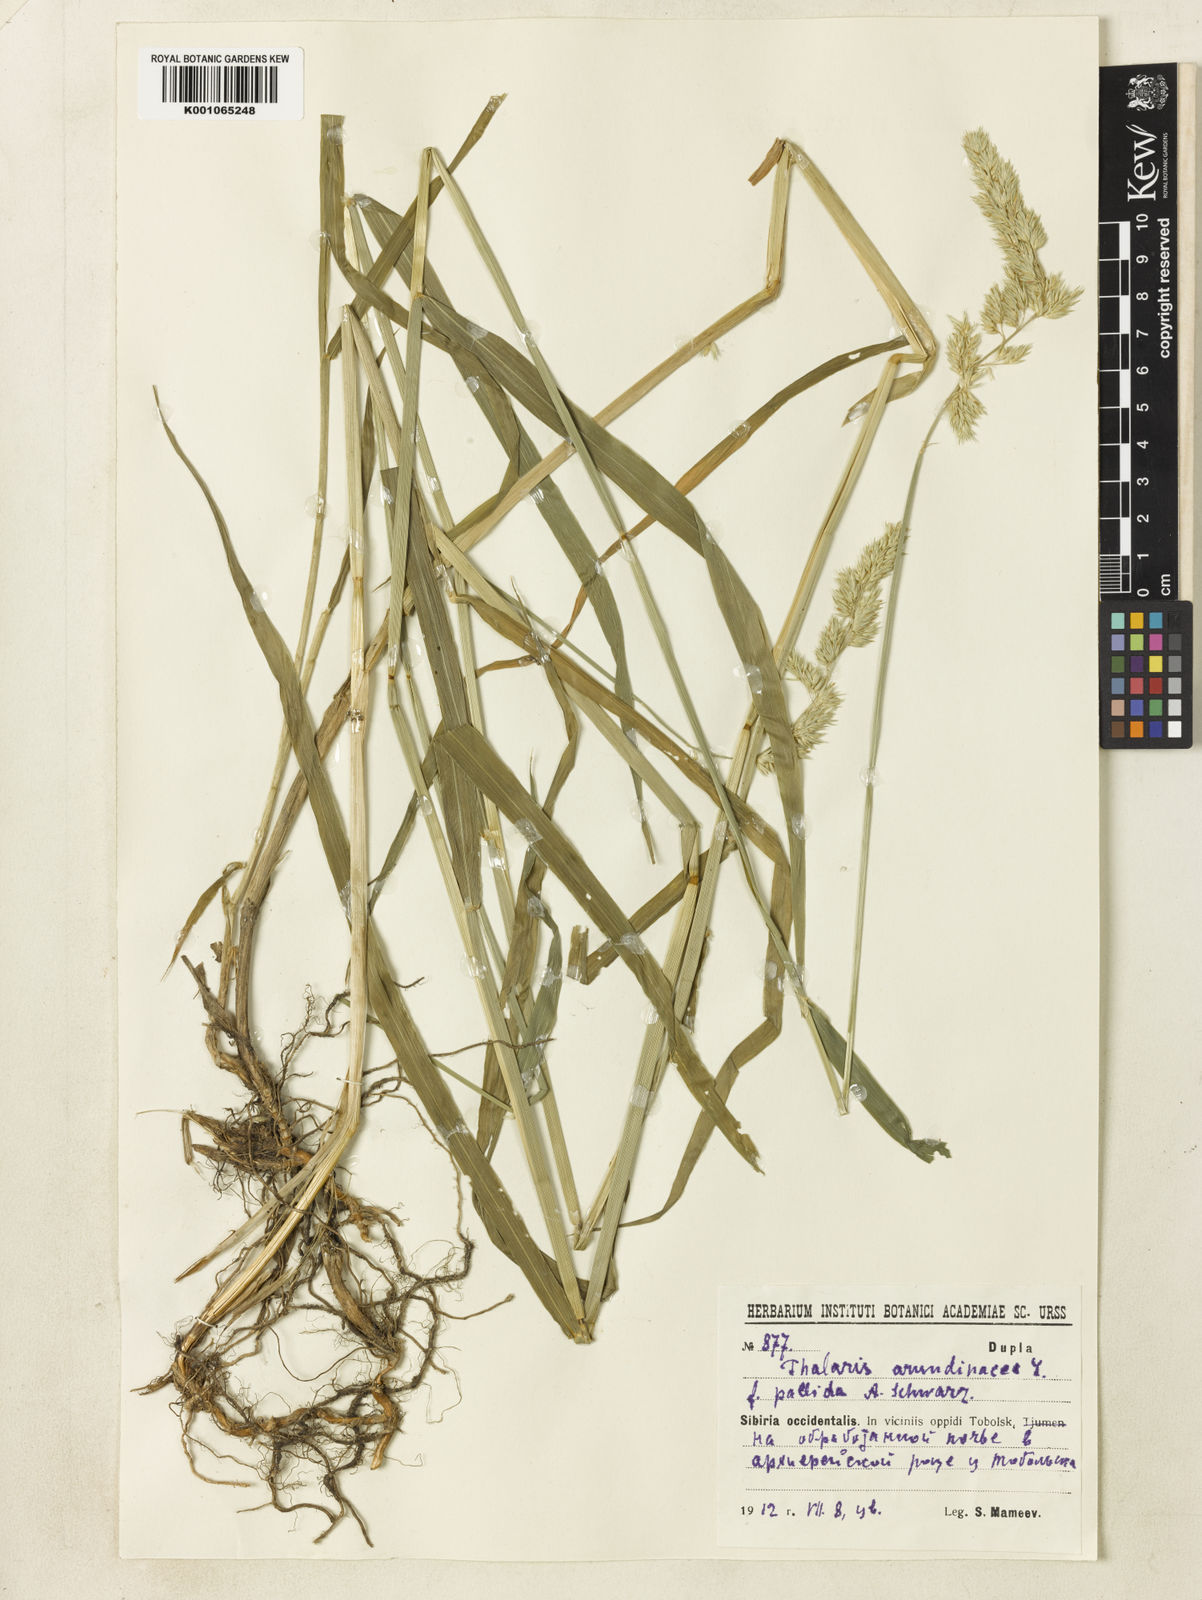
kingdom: Plantae
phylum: Tracheophyta
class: Liliopsida
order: Poales
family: Poaceae
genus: Phalaris
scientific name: Phalaris arundinacea
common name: Reed canary-grass
